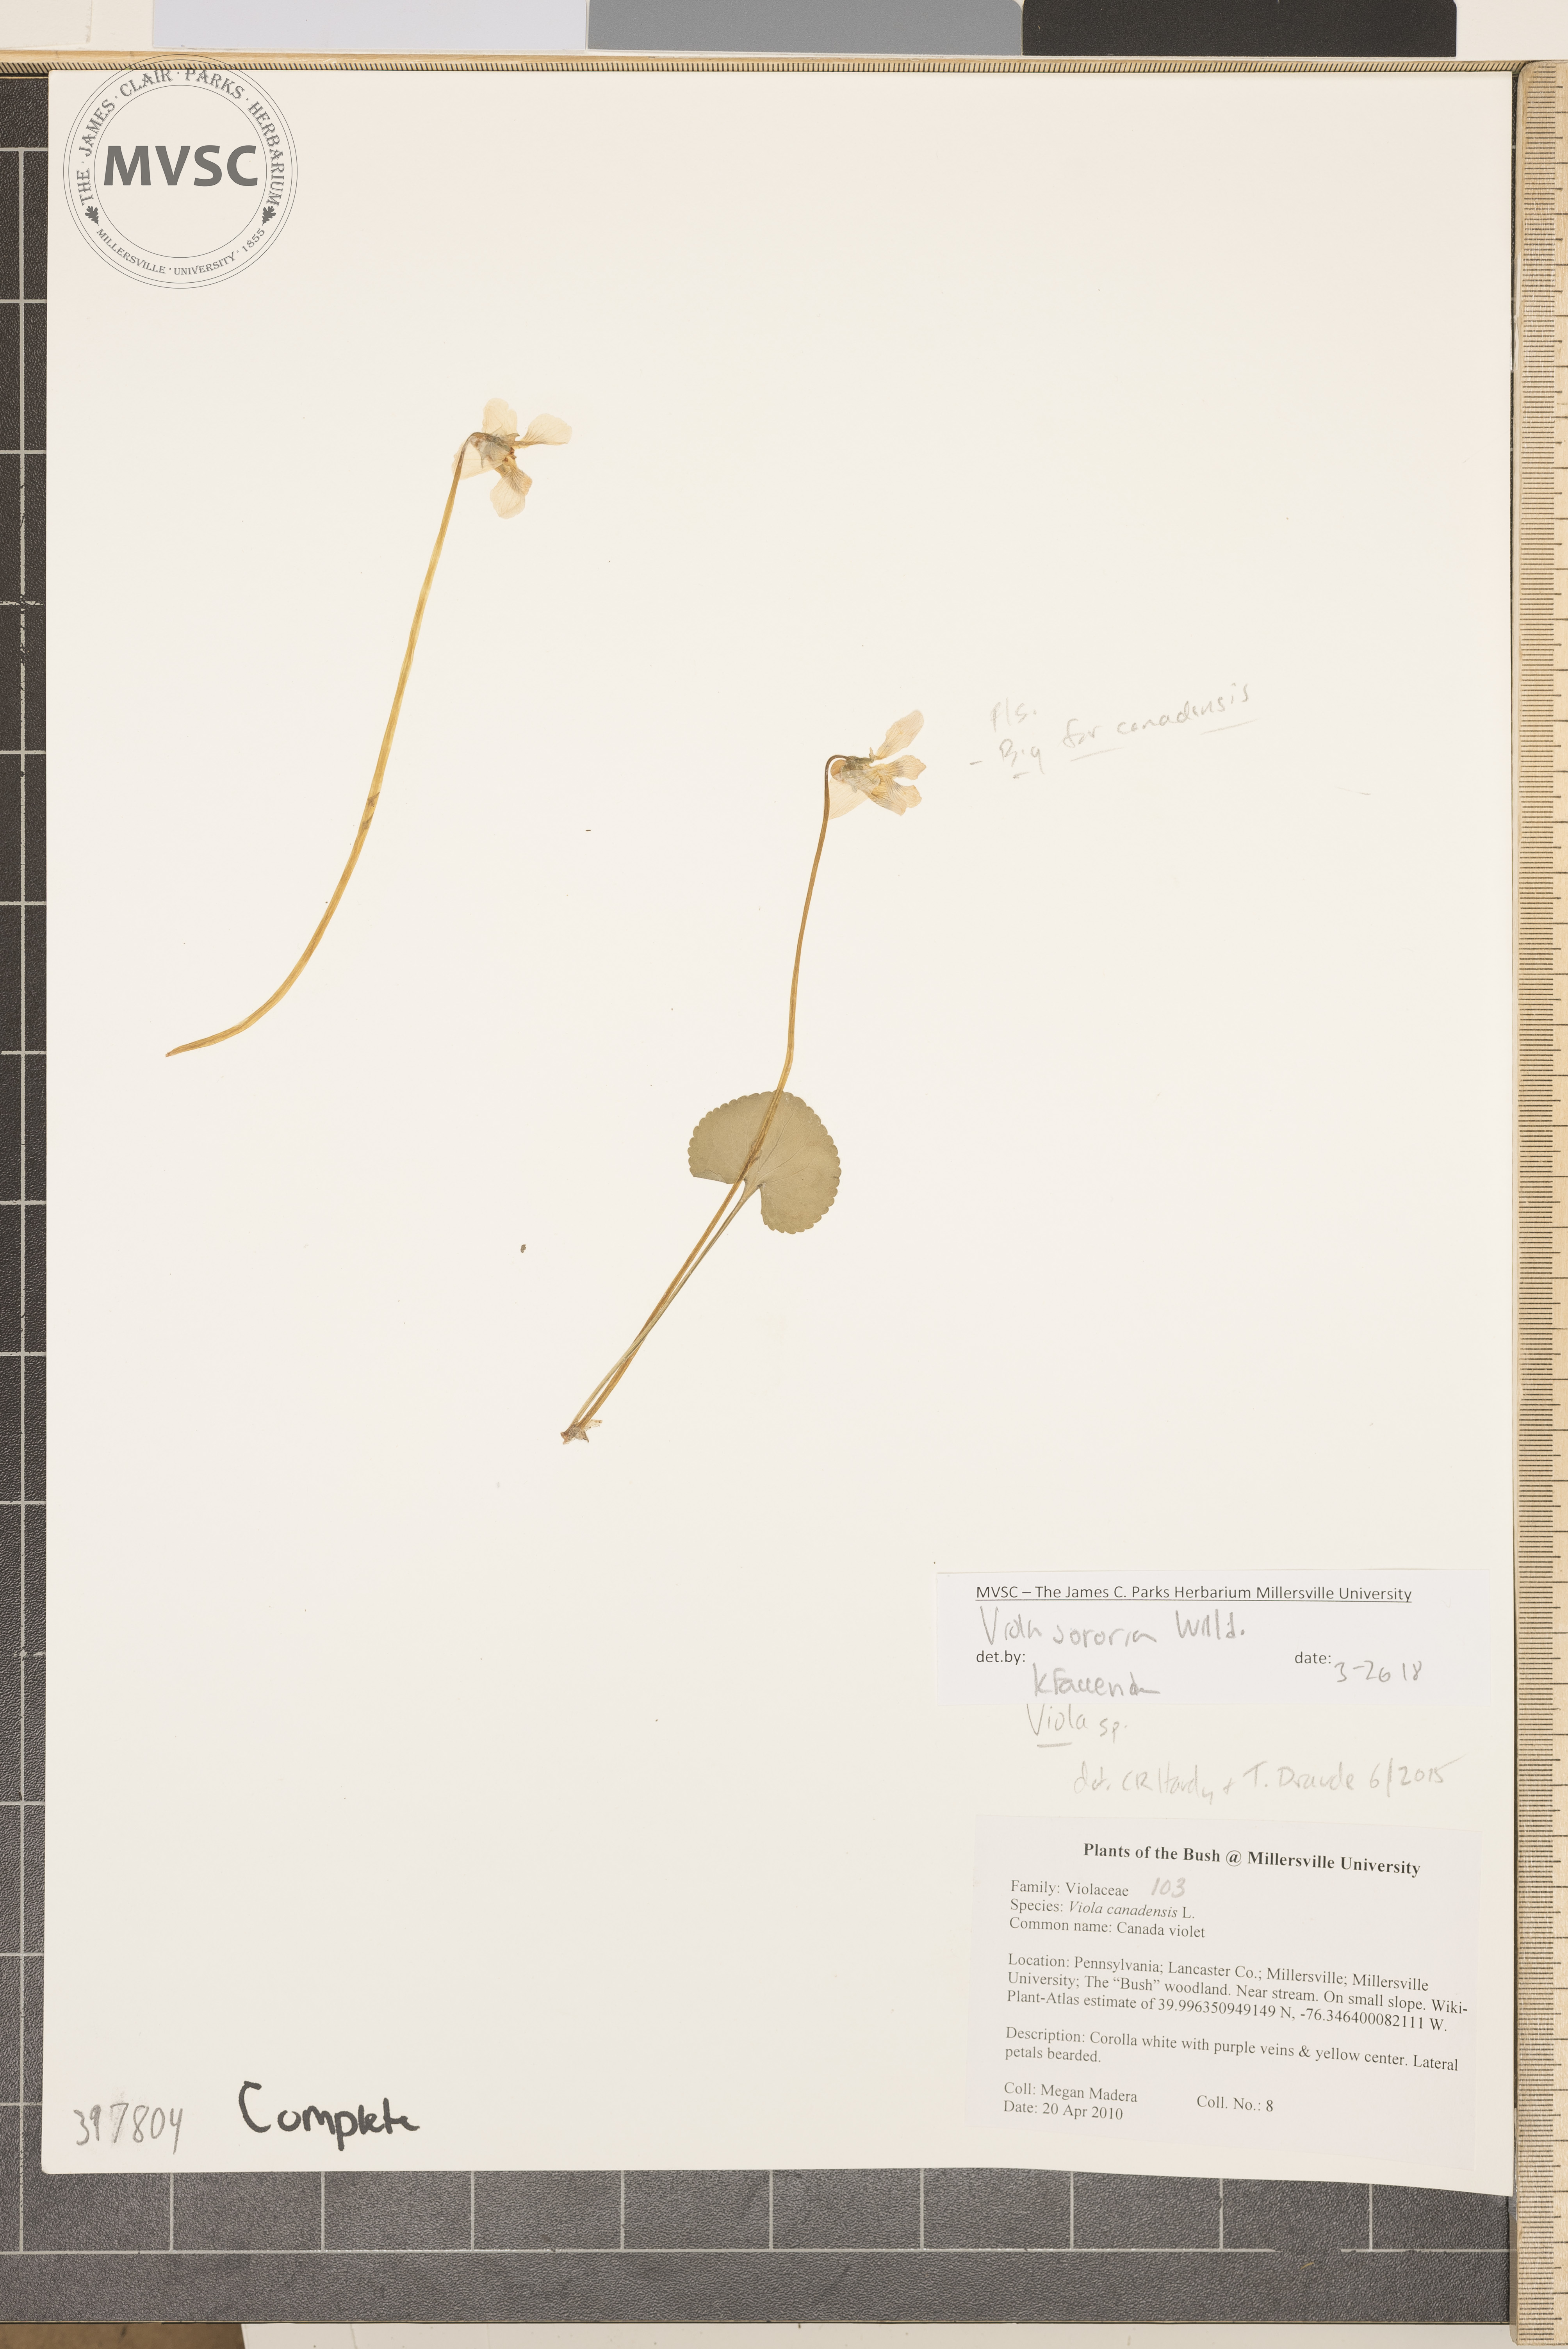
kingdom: Plantae
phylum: Tracheophyta
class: Magnoliopsida
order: Malpighiales
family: Violaceae
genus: Viola
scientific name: Viola sororia
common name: Violet
